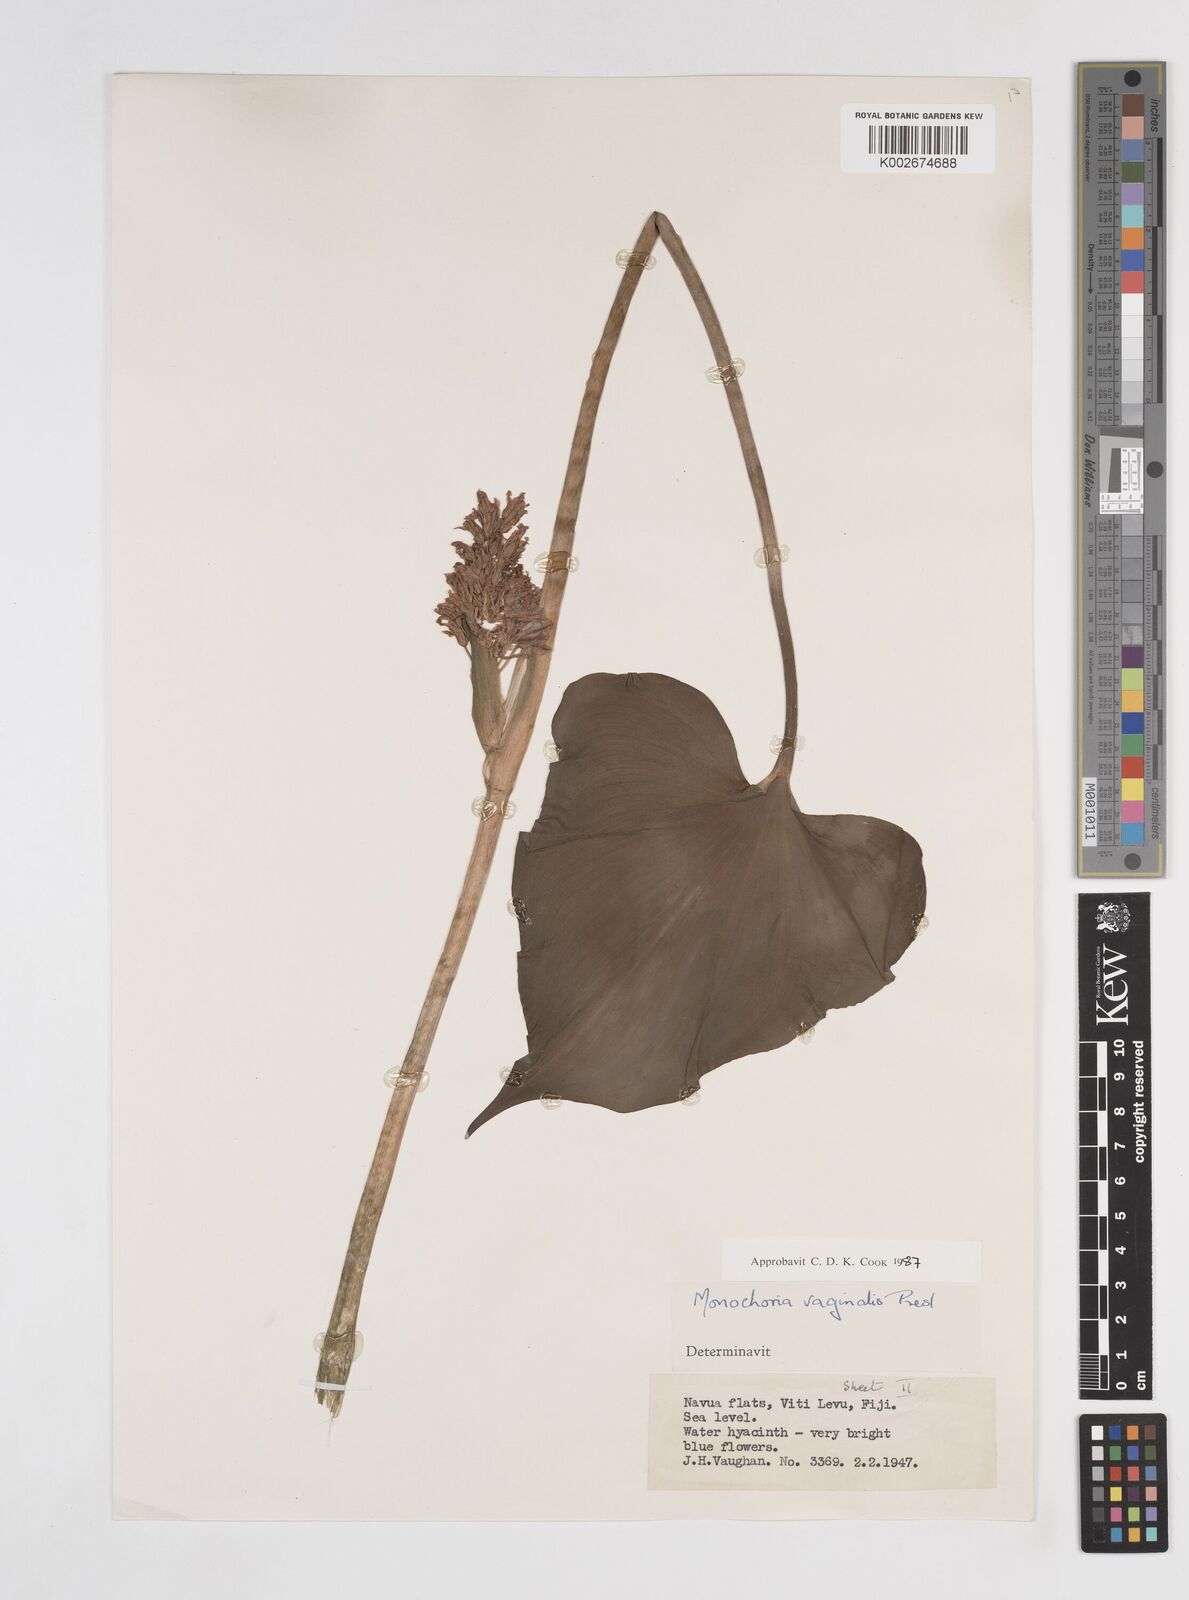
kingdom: Plantae
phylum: Tracheophyta
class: Liliopsida
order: Commelinales
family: Pontederiaceae
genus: Pontederia
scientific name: Pontederia vaginalis
